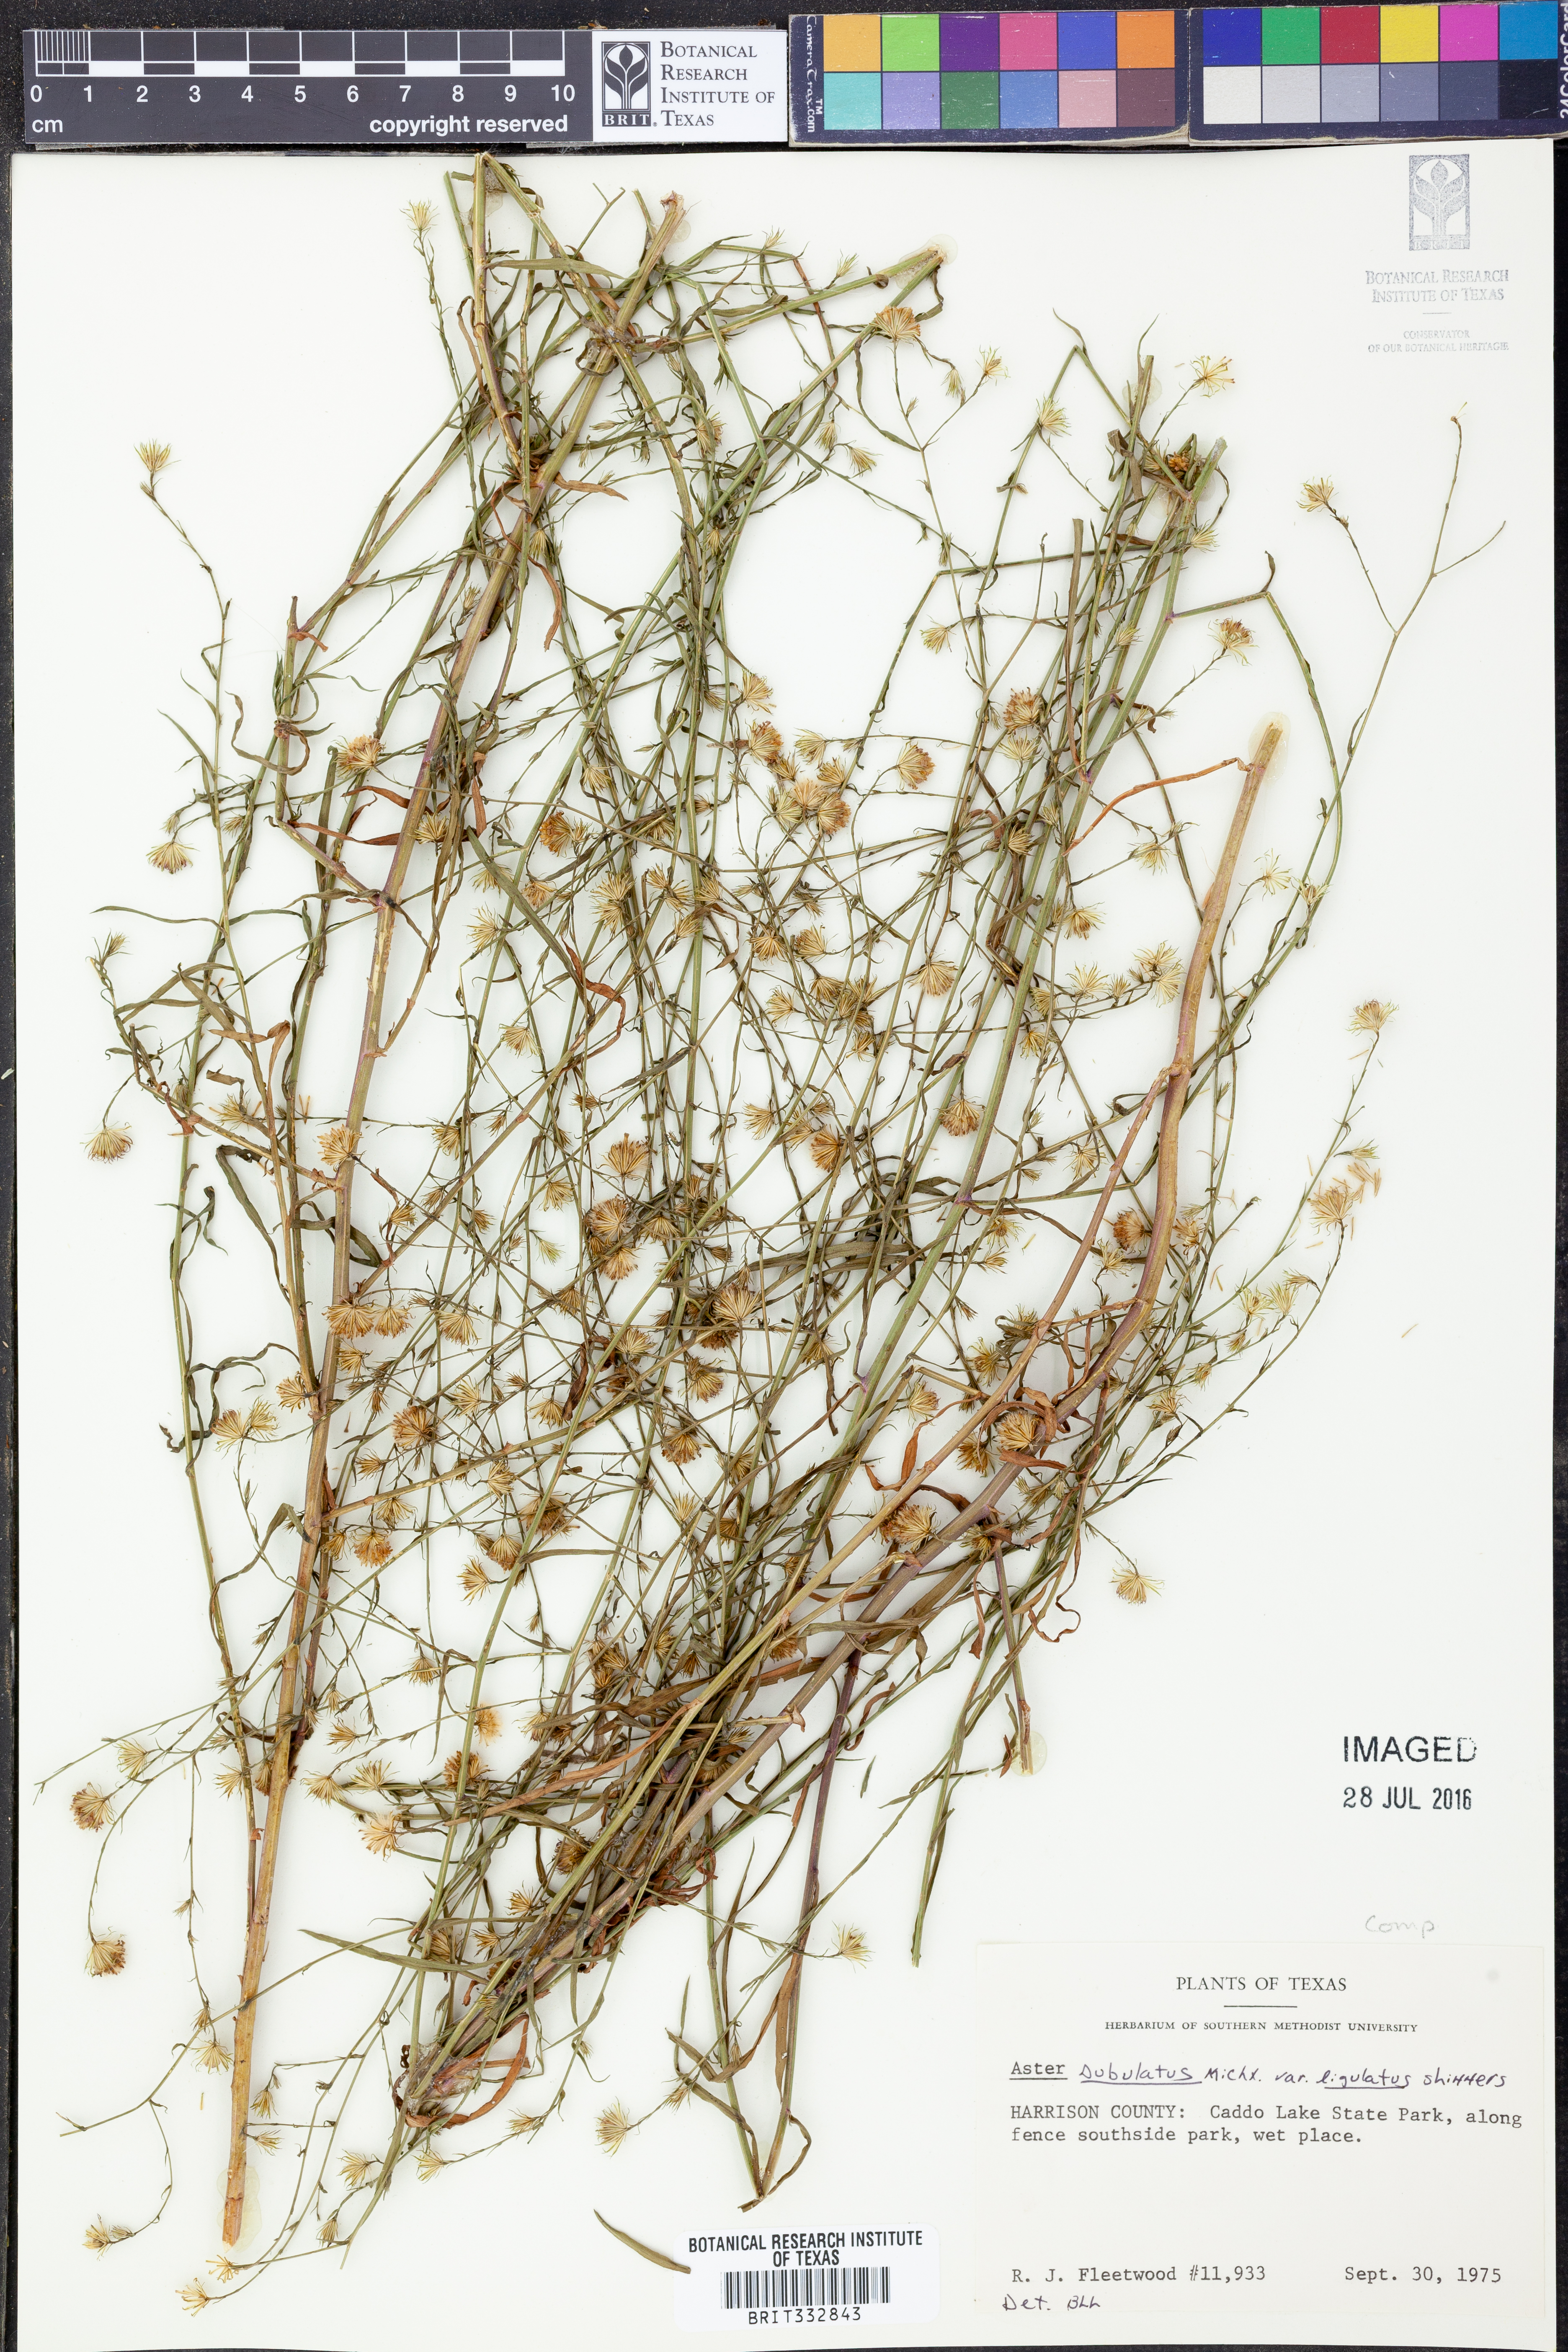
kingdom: Plantae
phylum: Tracheophyta
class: Magnoliopsida
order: Asterales
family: Asteraceae
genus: Symphyotrichum
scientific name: Symphyotrichum divaricatum
